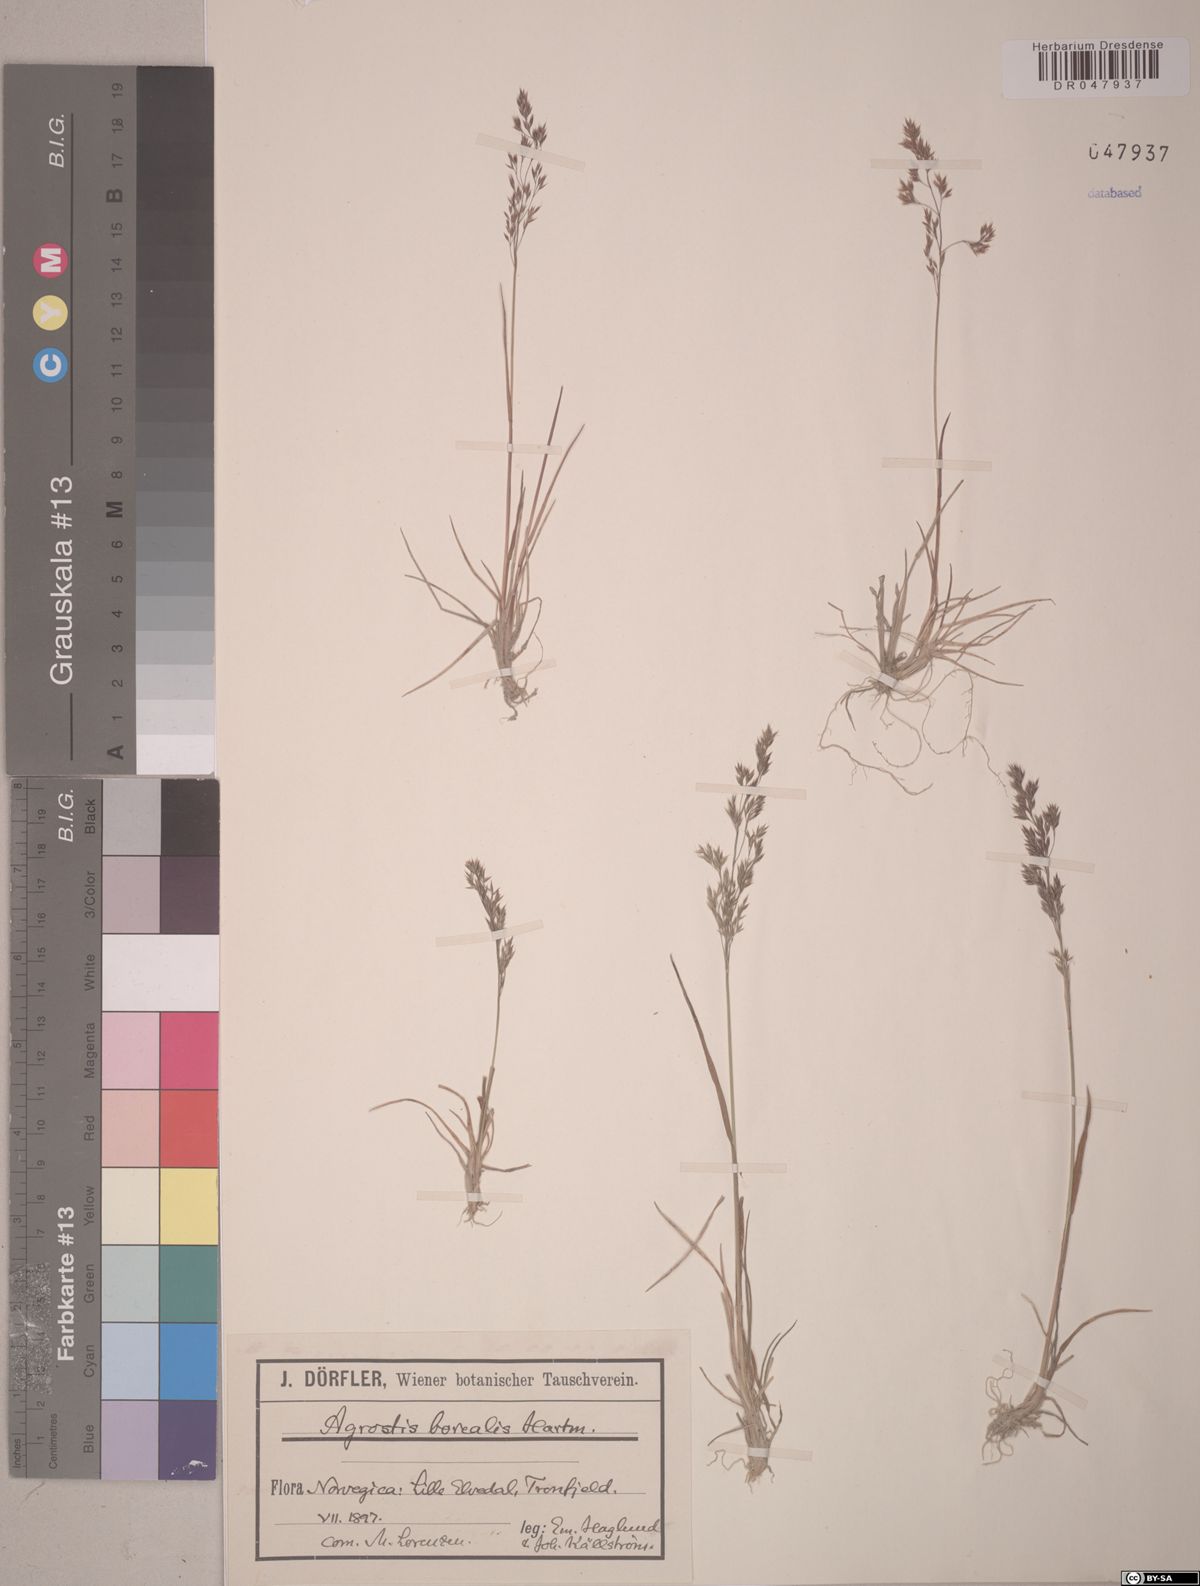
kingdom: Plantae
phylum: Tracheophyta
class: Liliopsida
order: Poales
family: Poaceae
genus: Agrostis
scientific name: Agrostis mertensii
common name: Northern bent
